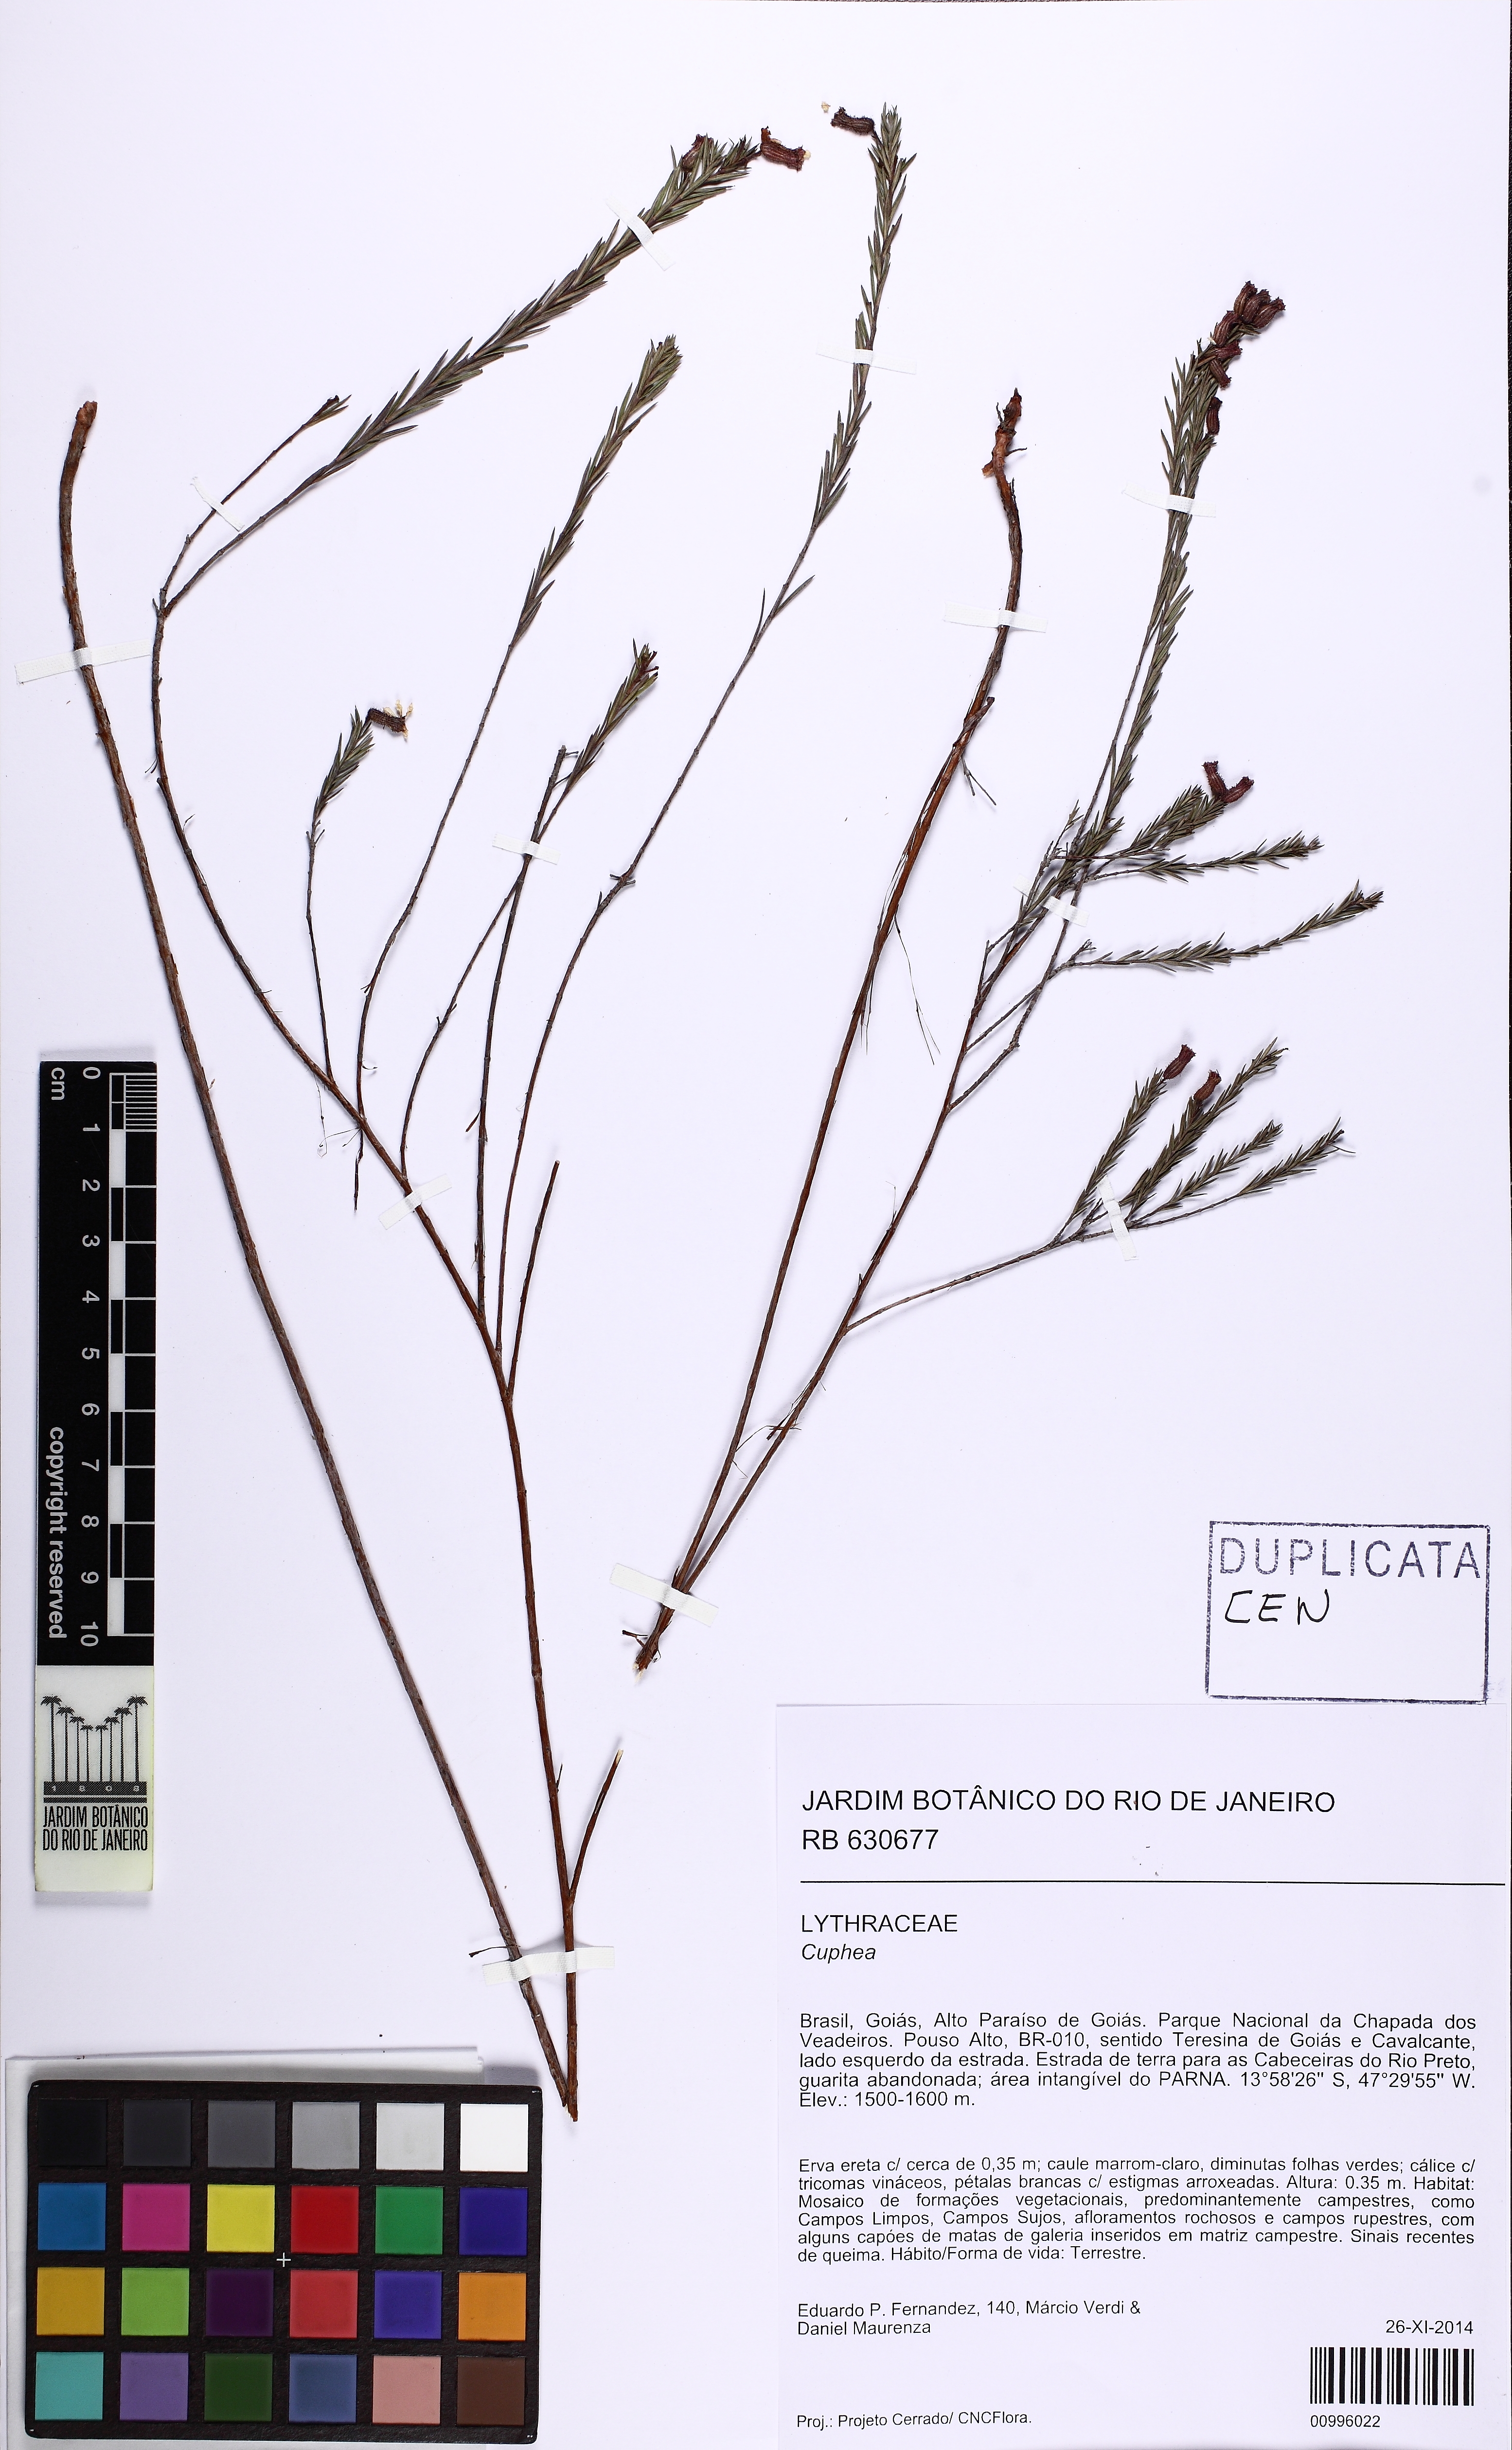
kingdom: Plantae
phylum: Tracheophyta
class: Magnoliopsida
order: Myrtales
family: Lythraceae
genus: Cuphea
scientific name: Cuphea
